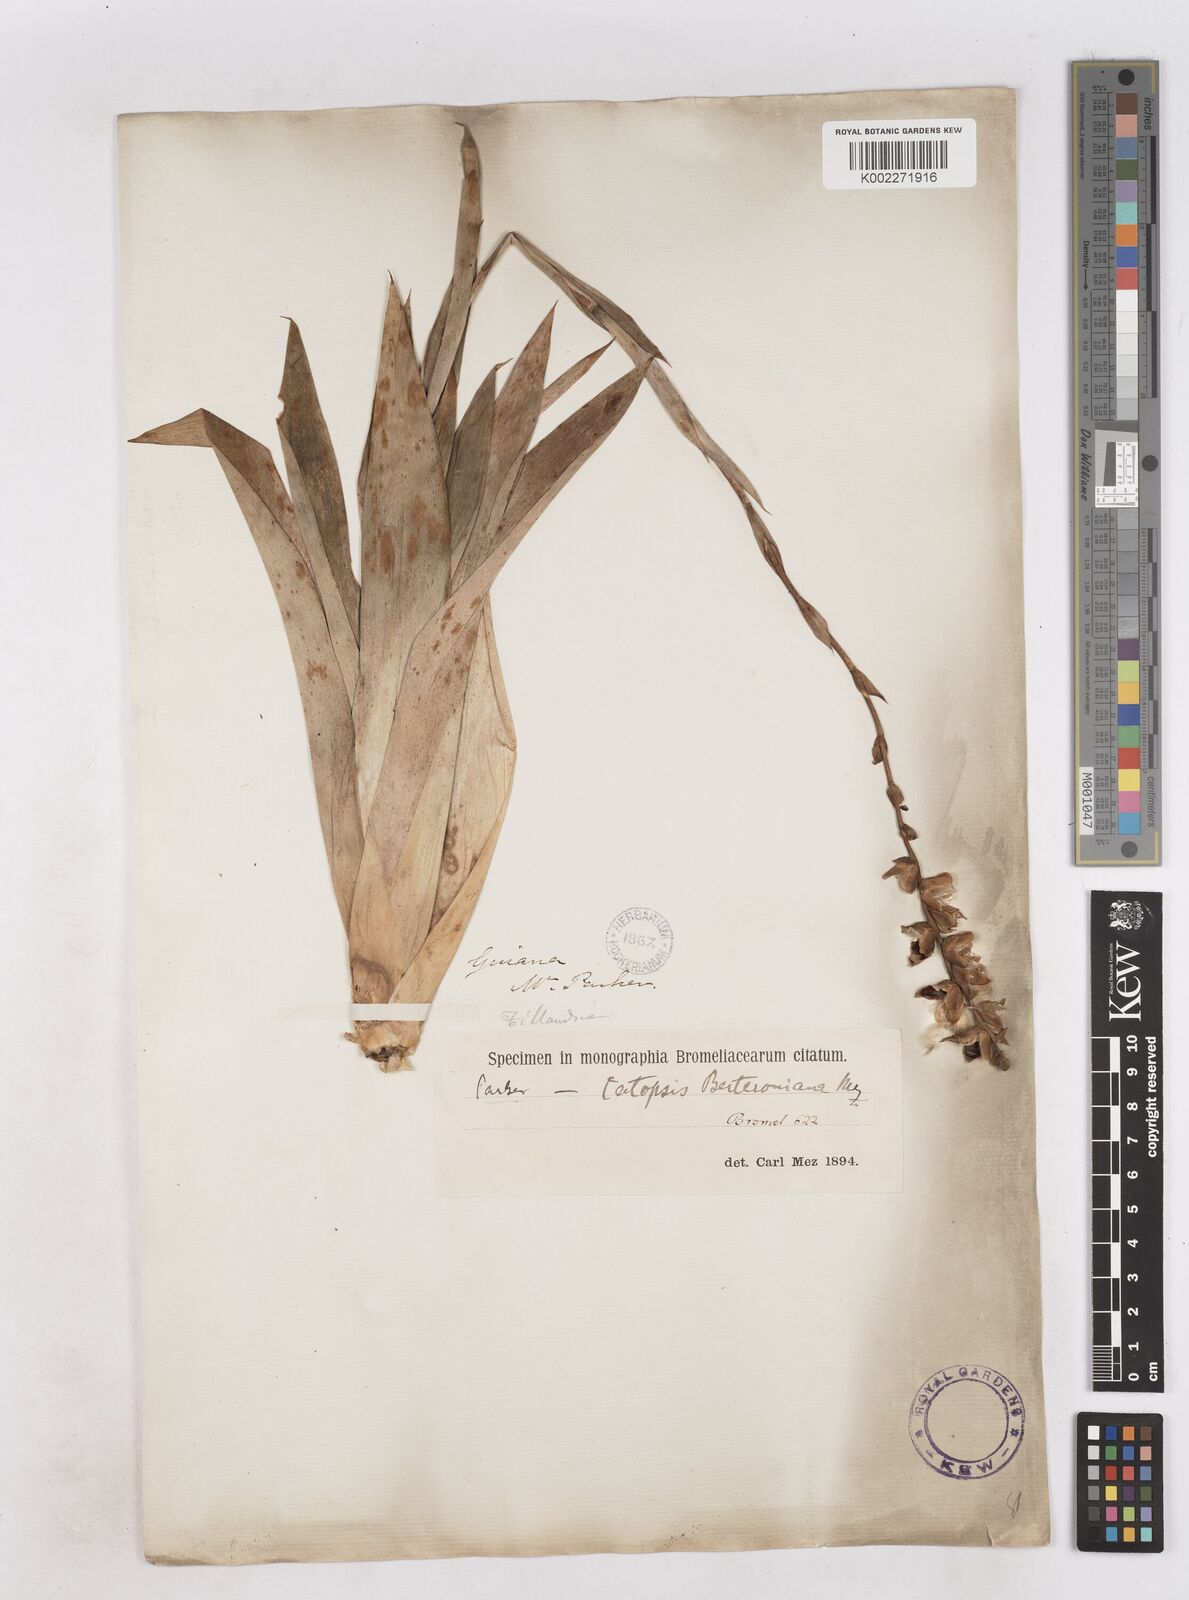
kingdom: Plantae
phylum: Tracheophyta
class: Liliopsida
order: Poales
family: Bromeliaceae
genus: Catopsis
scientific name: Catopsis berteroniana
